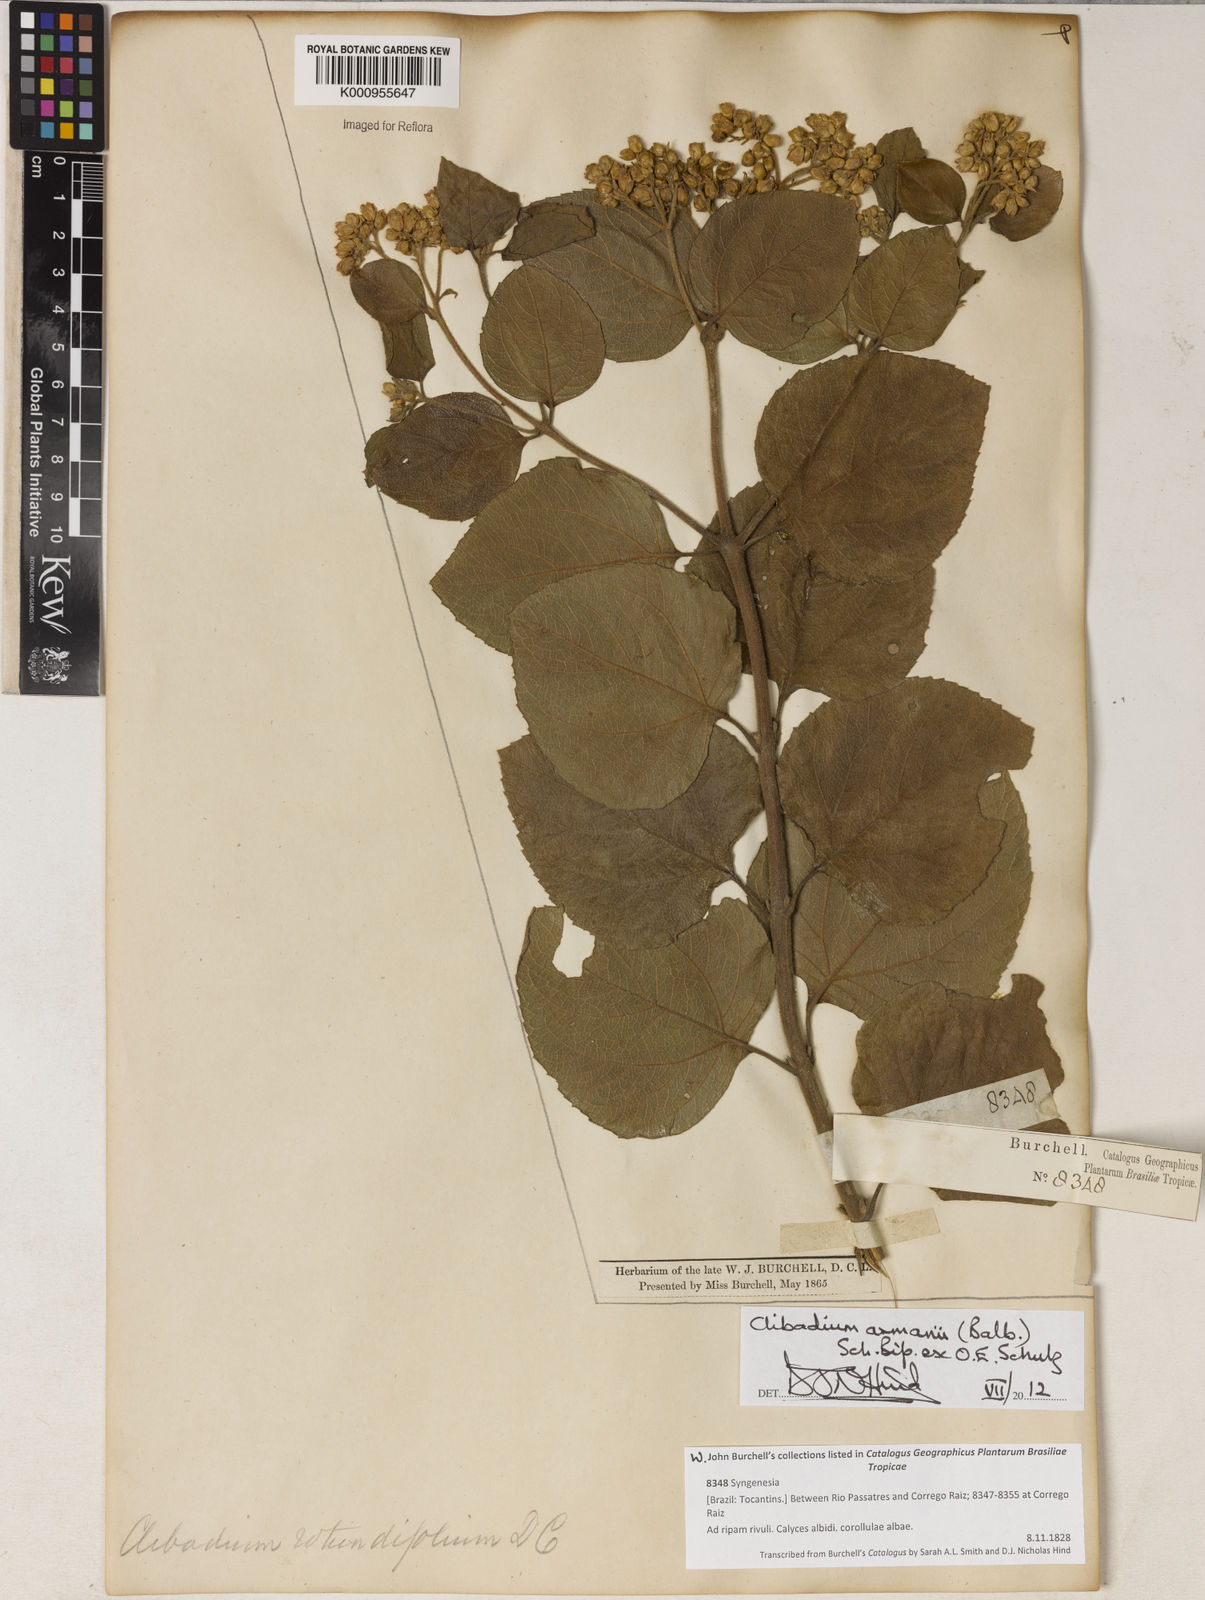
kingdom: Plantae
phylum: Tracheophyta
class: Magnoliopsida
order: Asterales
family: Asteraceae
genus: Clibadium
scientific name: Clibadium armanii
